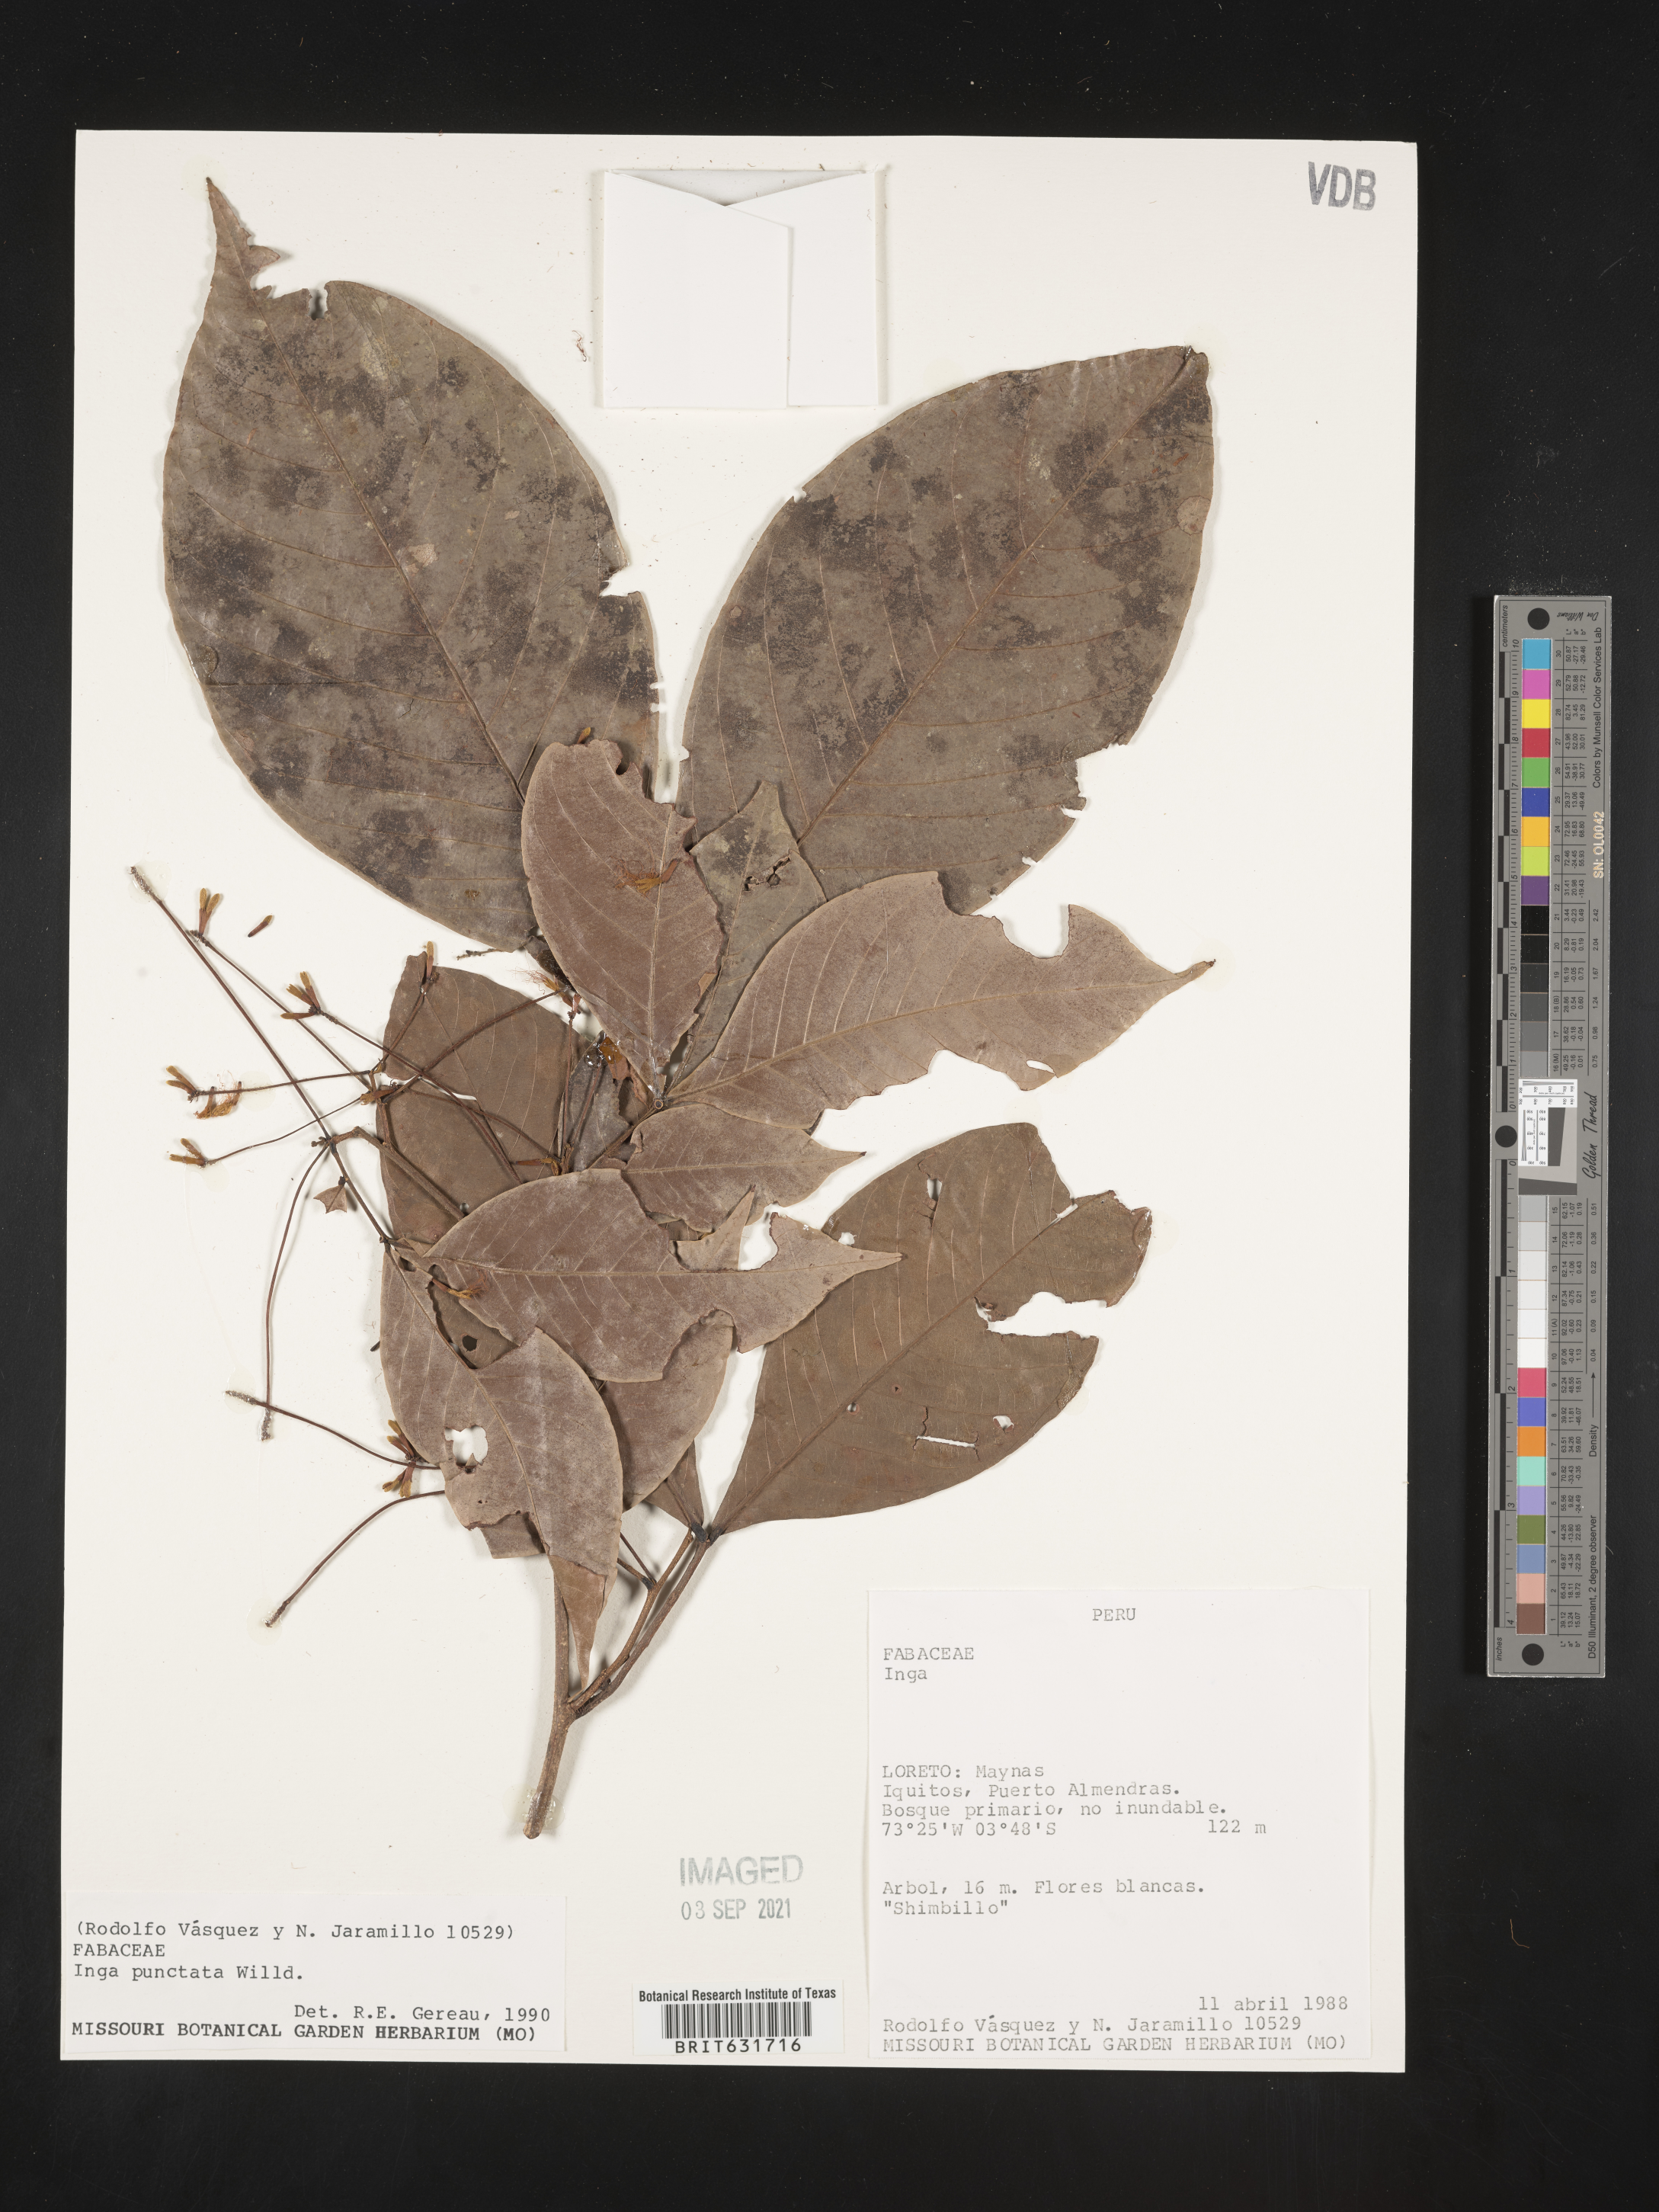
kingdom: Plantae
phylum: Tracheophyta
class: Magnoliopsida
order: Fabales
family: Fabaceae
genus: Inga
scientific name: Inga
